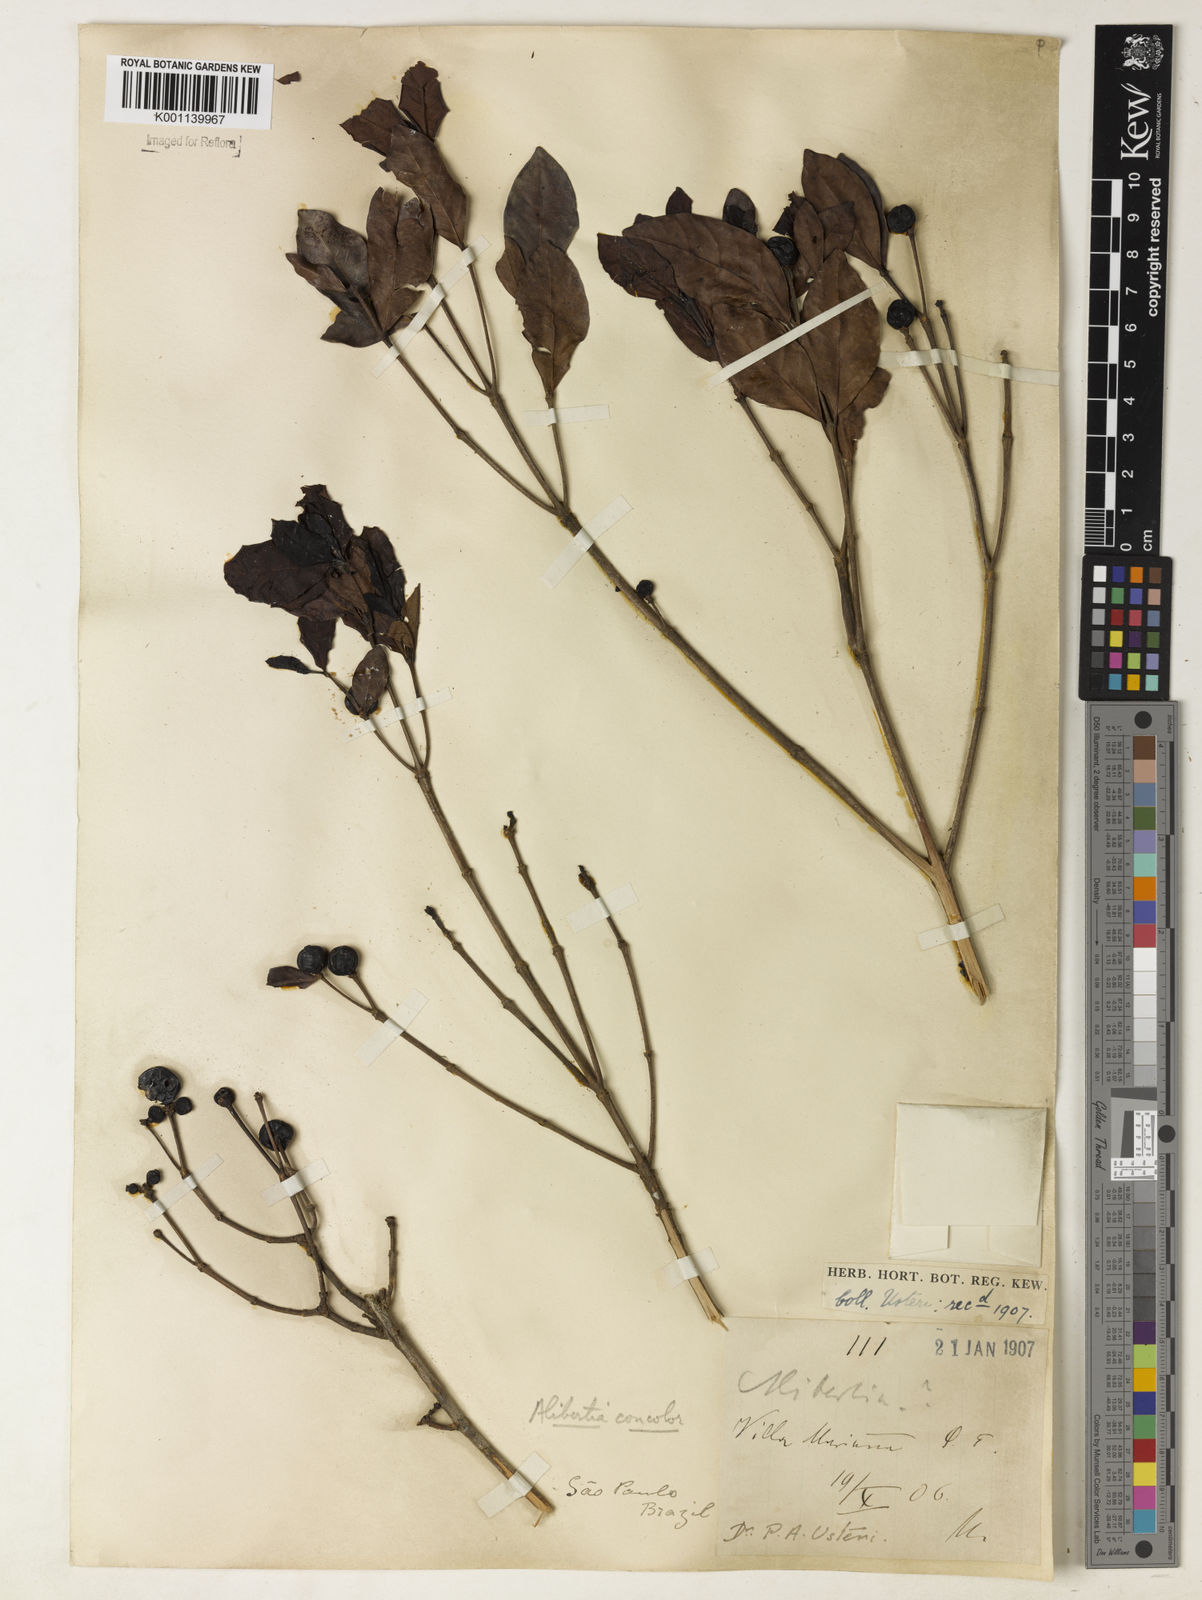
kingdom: Plantae
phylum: Tracheophyta
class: Magnoliopsida
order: Gentianales
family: Rubiaceae
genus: Cordiera
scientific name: Cordiera concolor
